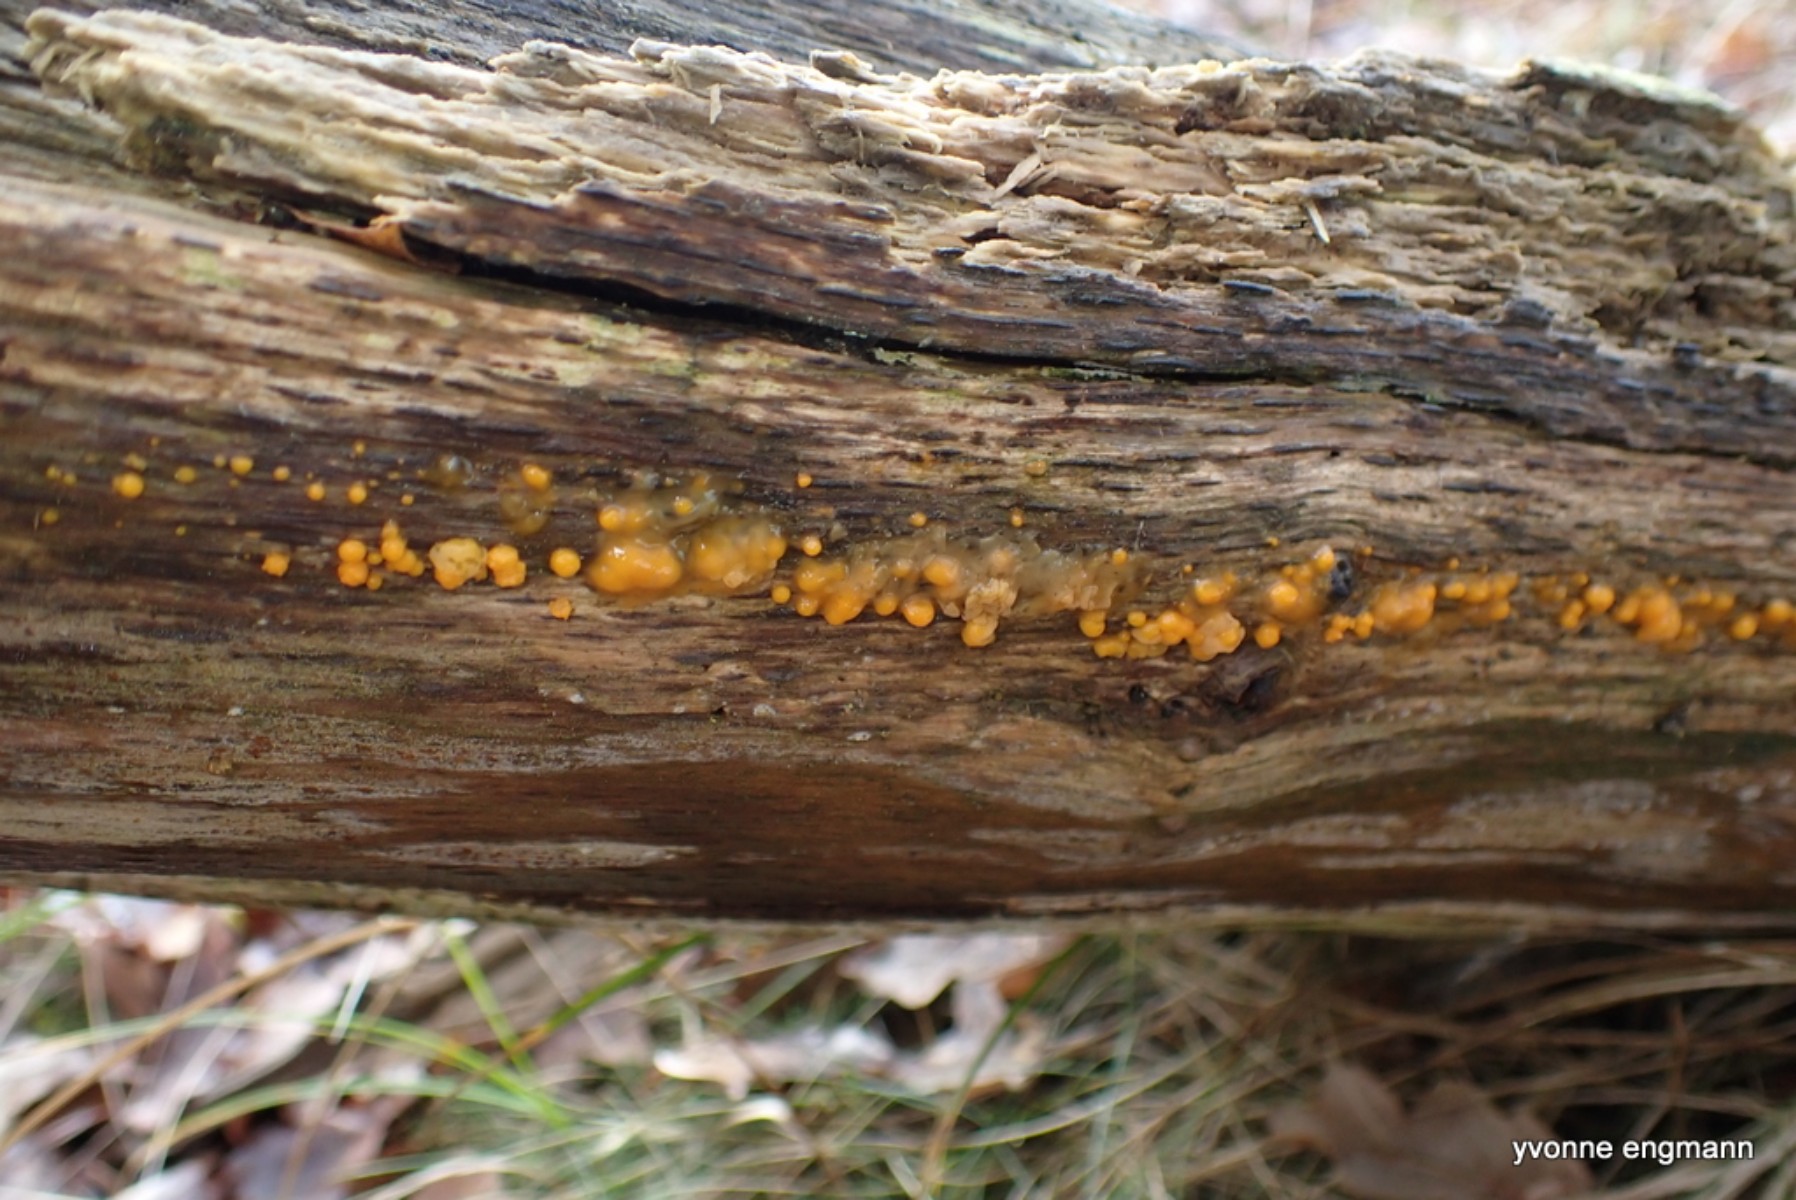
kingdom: Fungi
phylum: Basidiomycota
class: Dacrymycetes
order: Dacrymycetales
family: Dacrymycetaceae
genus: Dacrymyces
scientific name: Dacrymyces stillatus
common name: almindelig tåresvamp
